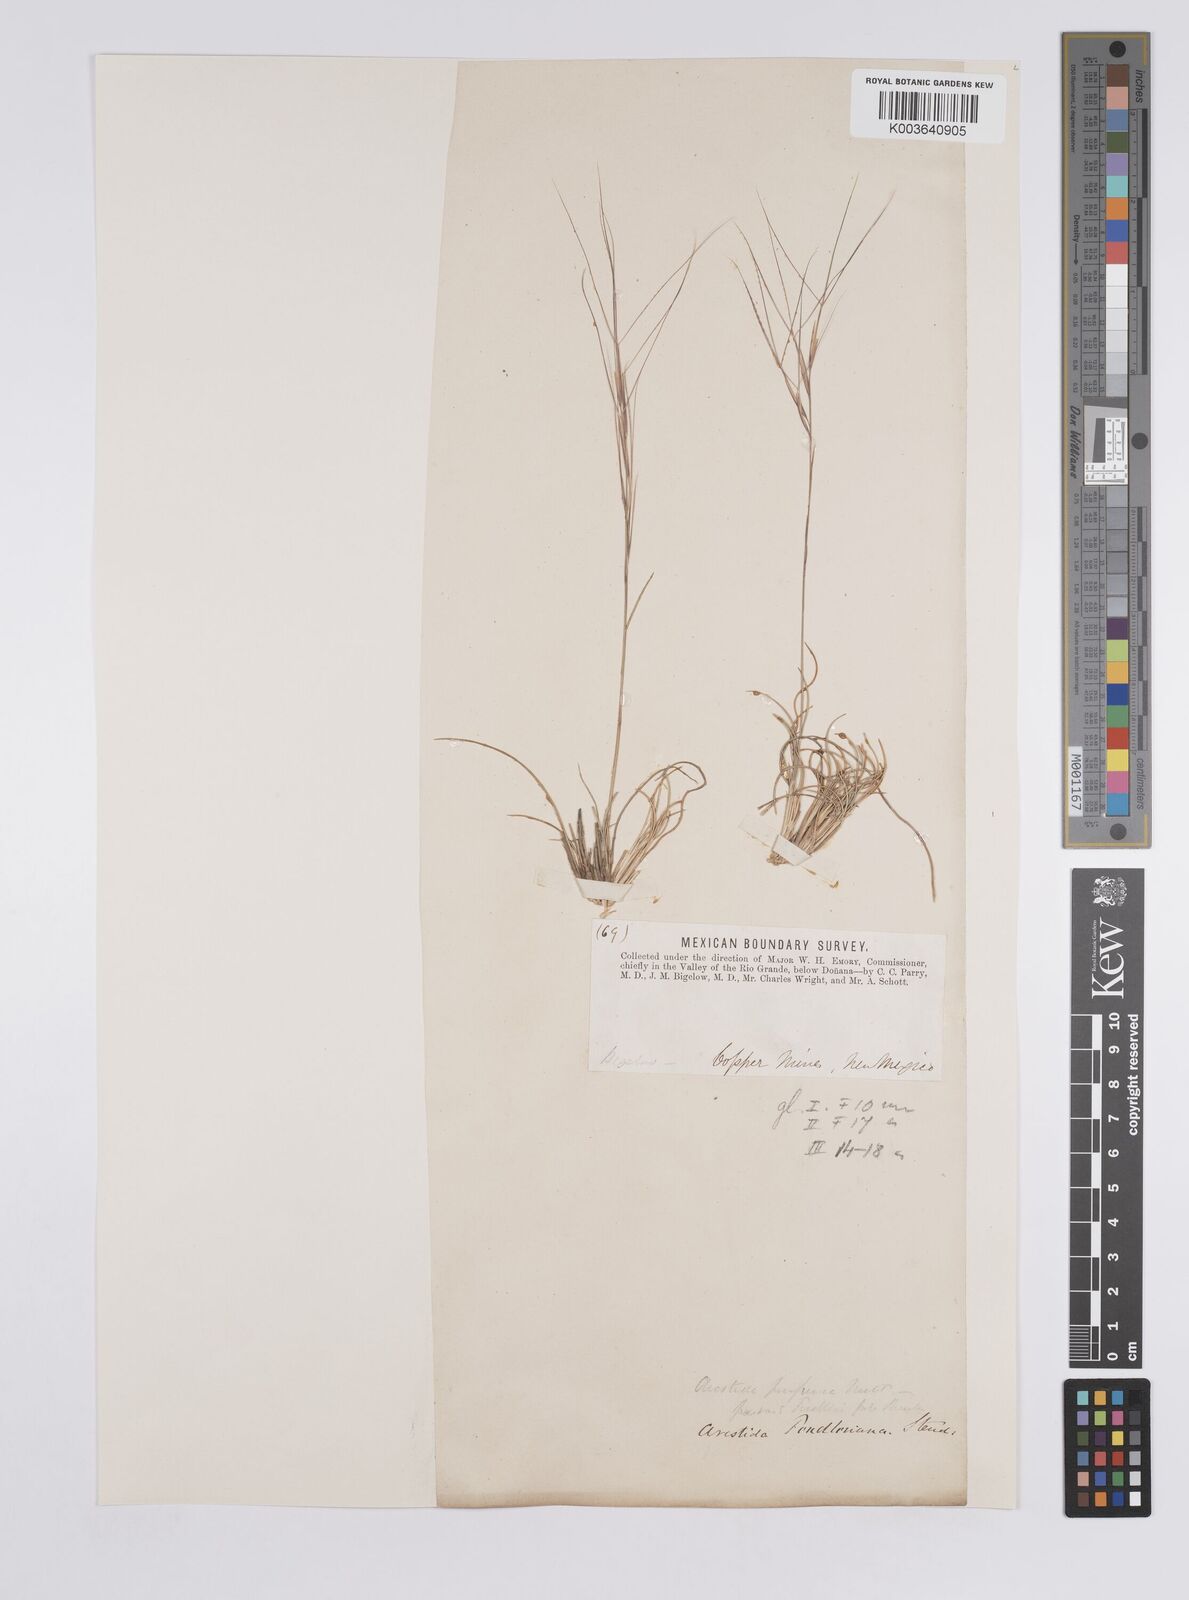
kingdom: Plantae
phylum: Tracheophyta
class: Liliopsida
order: Poales
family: Poaceae
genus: Aristida
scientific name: Aristida purpurea
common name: Purple threeawn
